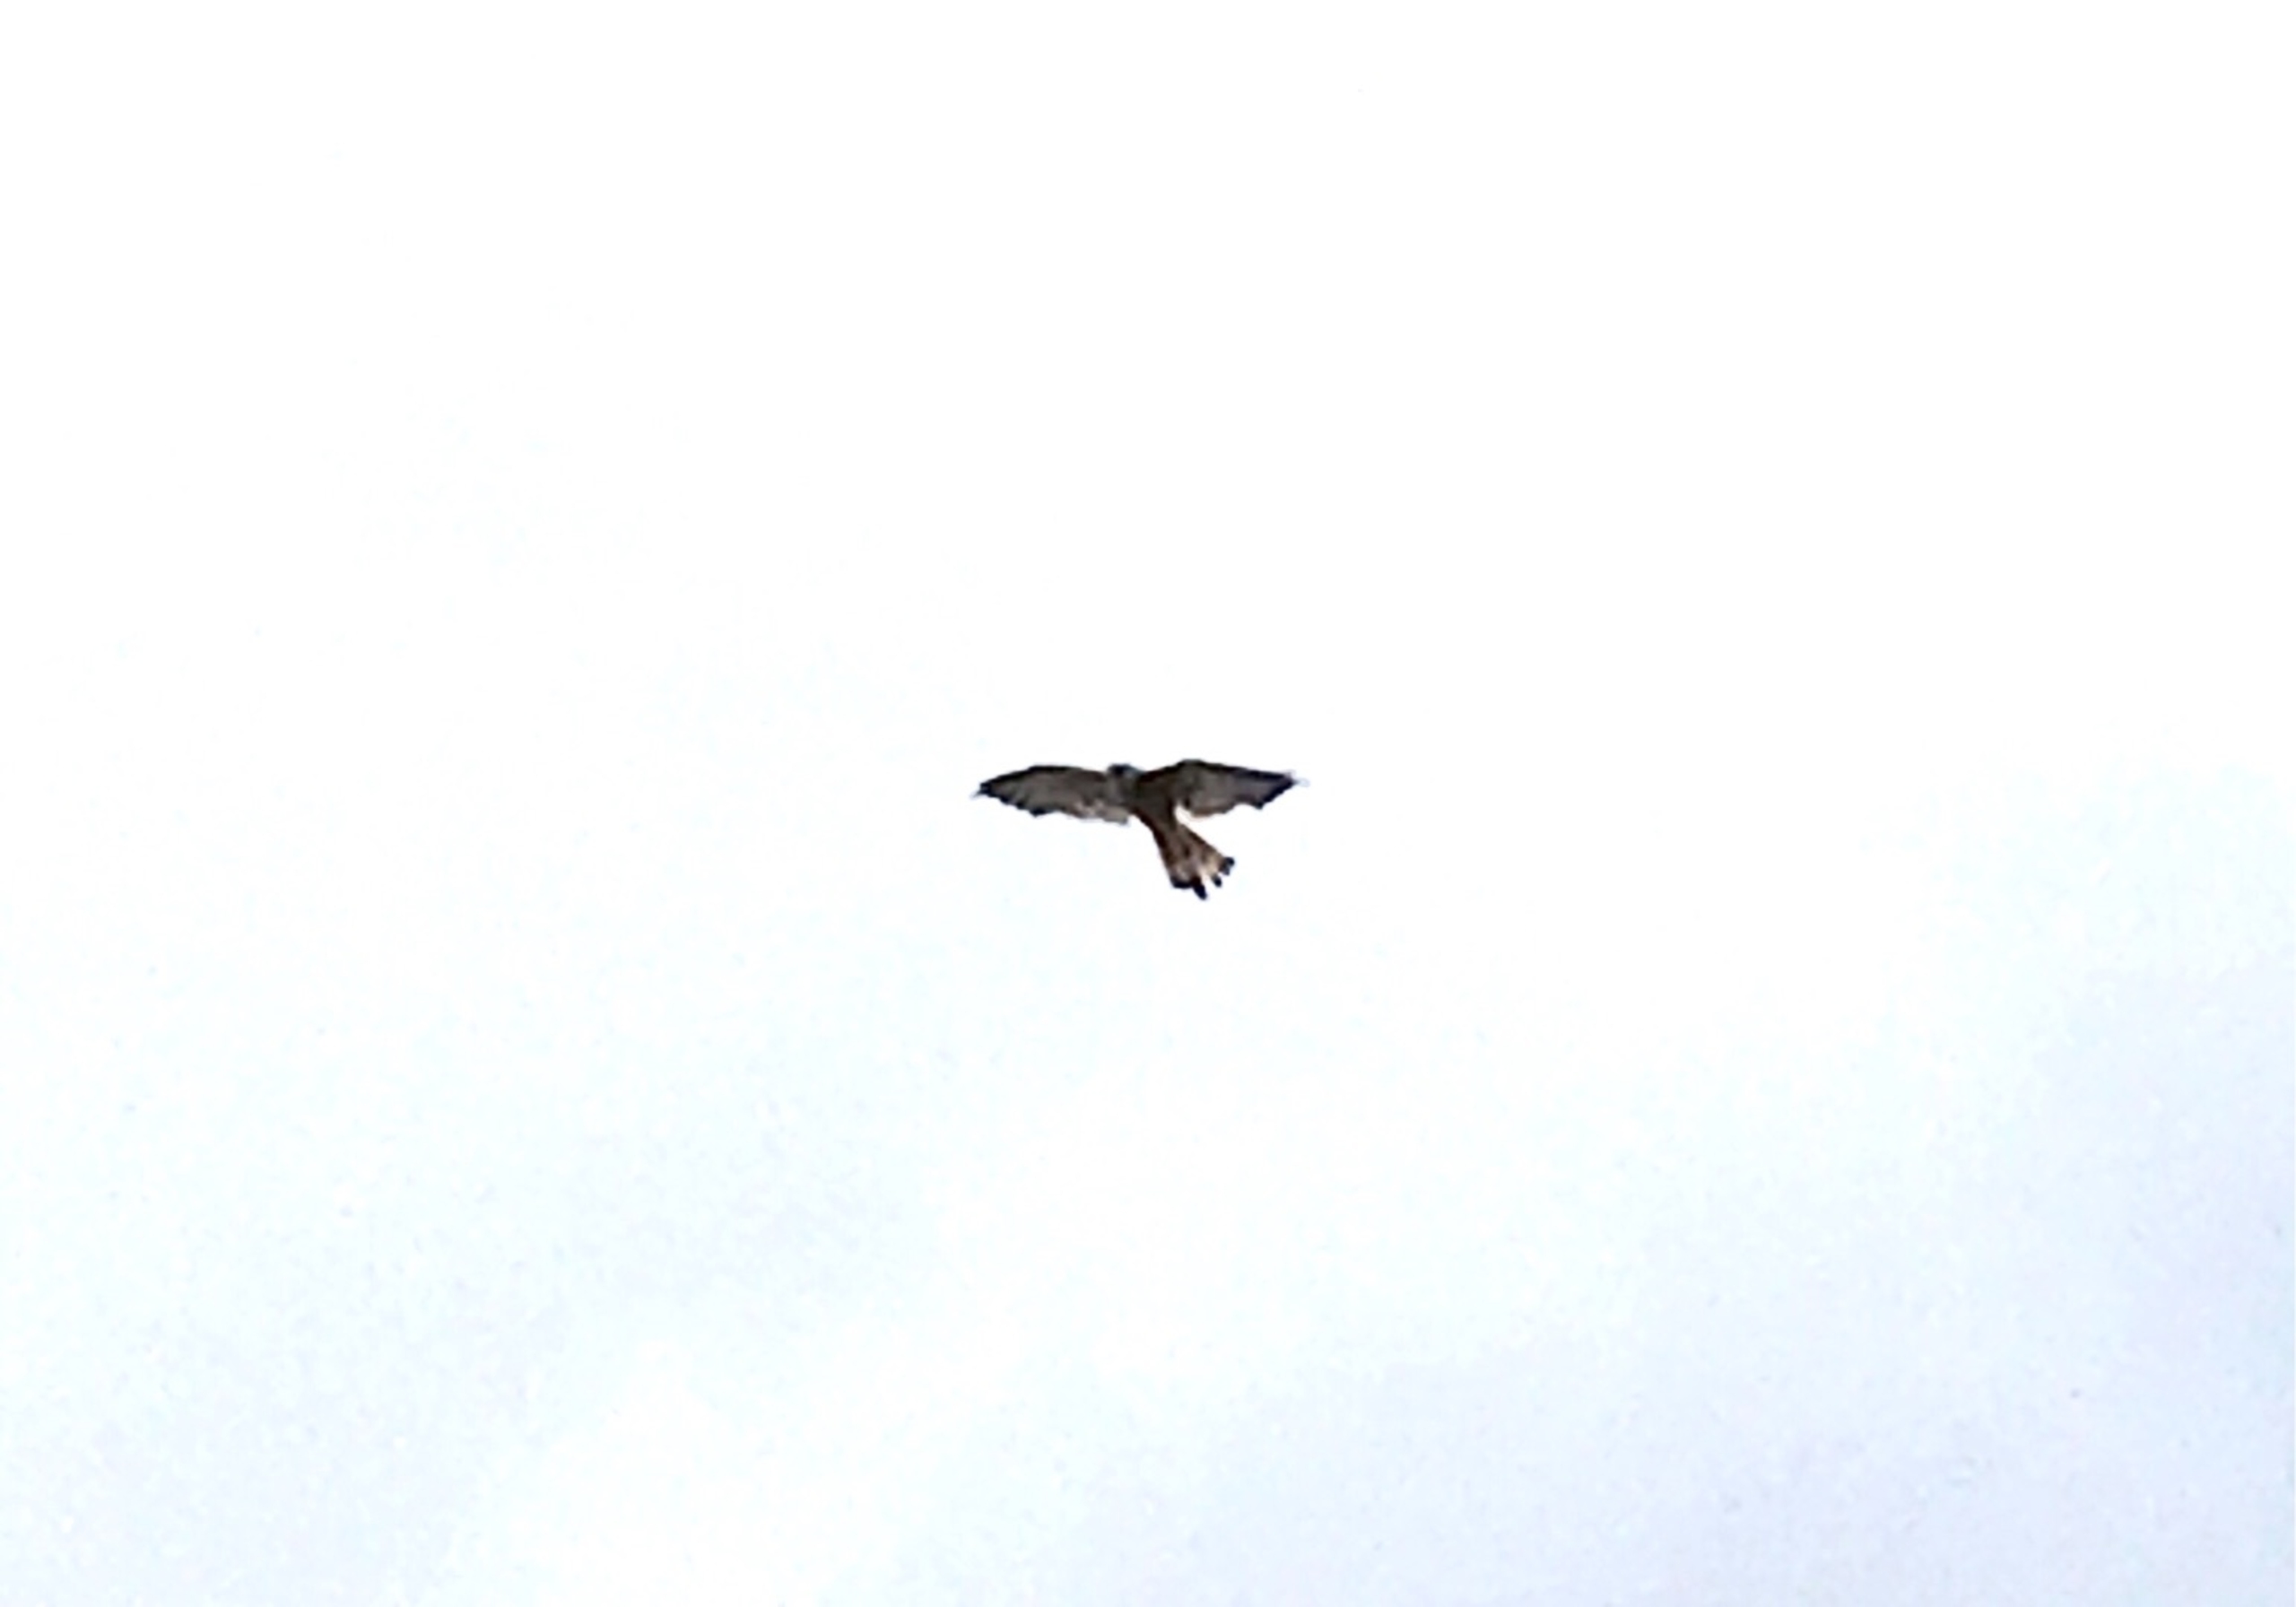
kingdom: Animalia
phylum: Chordata
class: Aves
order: Falconiformes
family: Falconidae
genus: Falco
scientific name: Falco tinnunculus
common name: Tårnfalk
